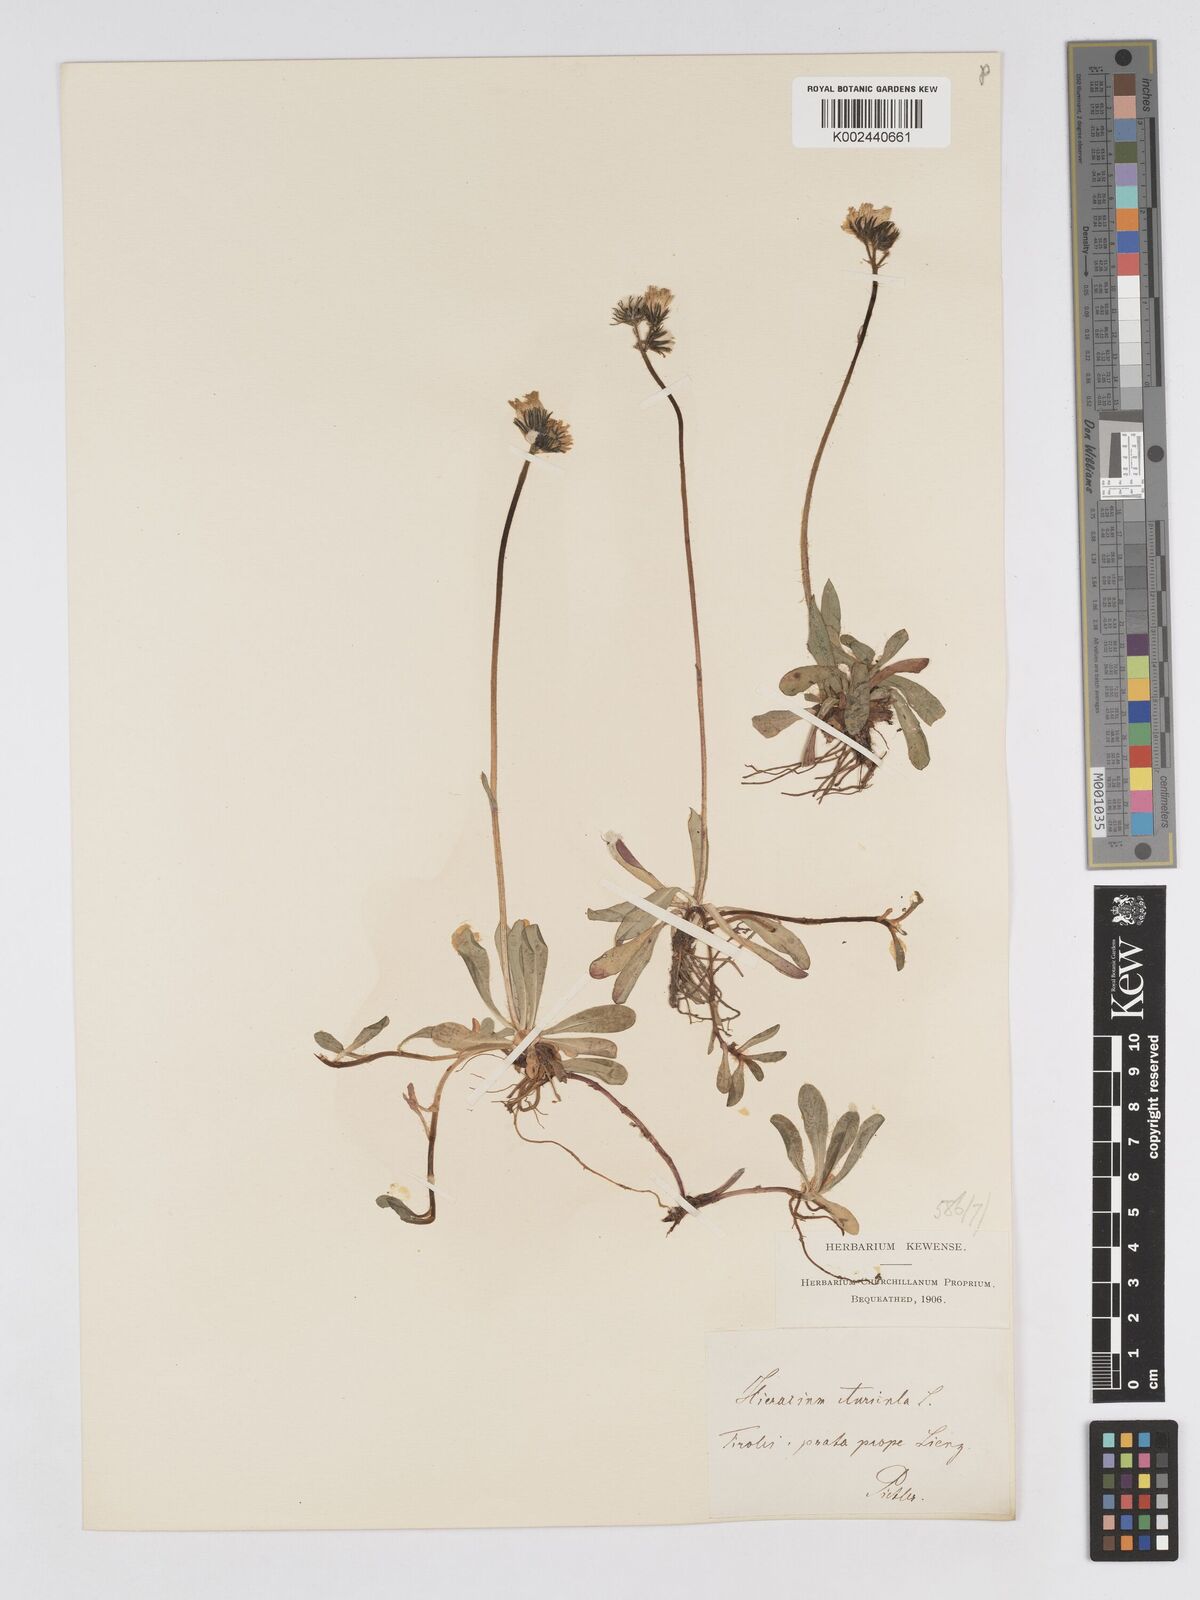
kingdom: Plantae
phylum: Tracheophyta
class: Magnoliopsida
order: Asterales
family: Asteraceae
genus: Pilosella
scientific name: Pilosella floribunda
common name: Glaucous hawkweed
